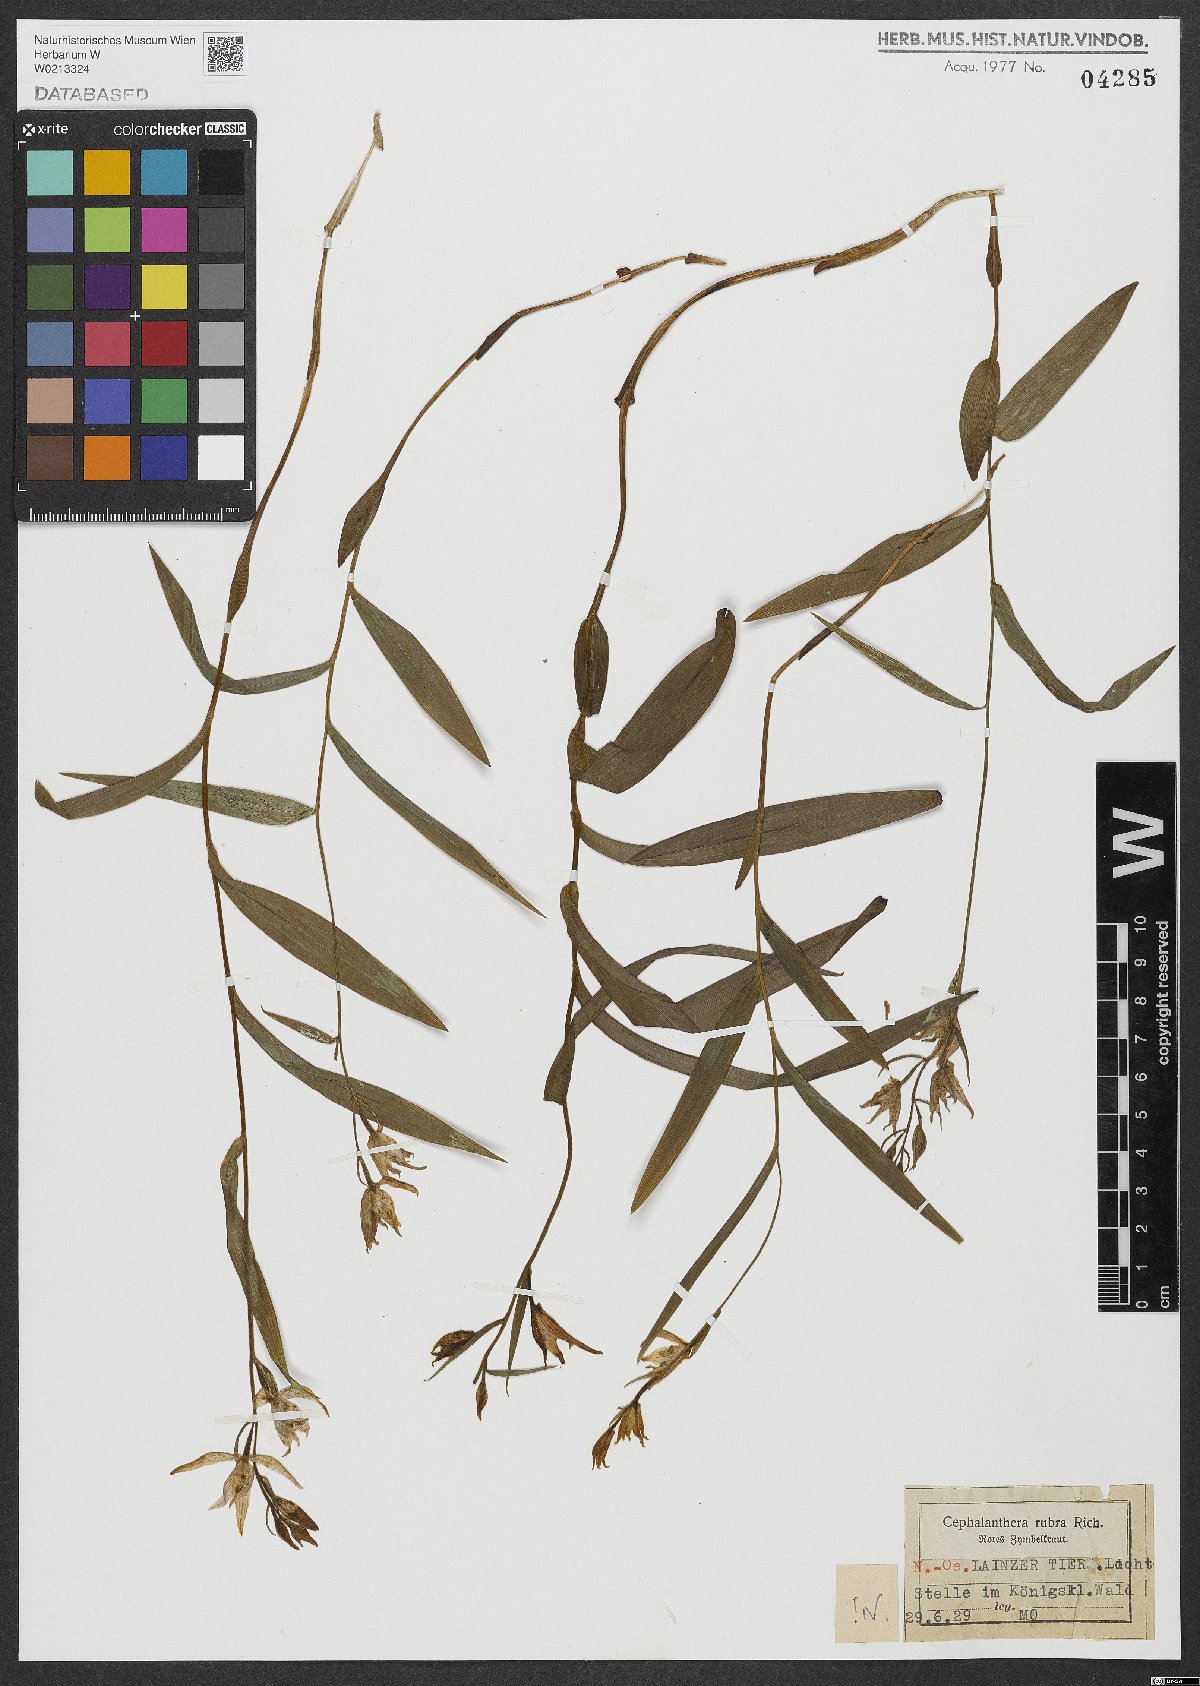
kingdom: Plantae
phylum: Tracheophyta
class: Liliopsida
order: Asparagales
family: Orchidaceae
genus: Cephalanthera
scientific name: Cephalanthera rubra
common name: Red helleborine
